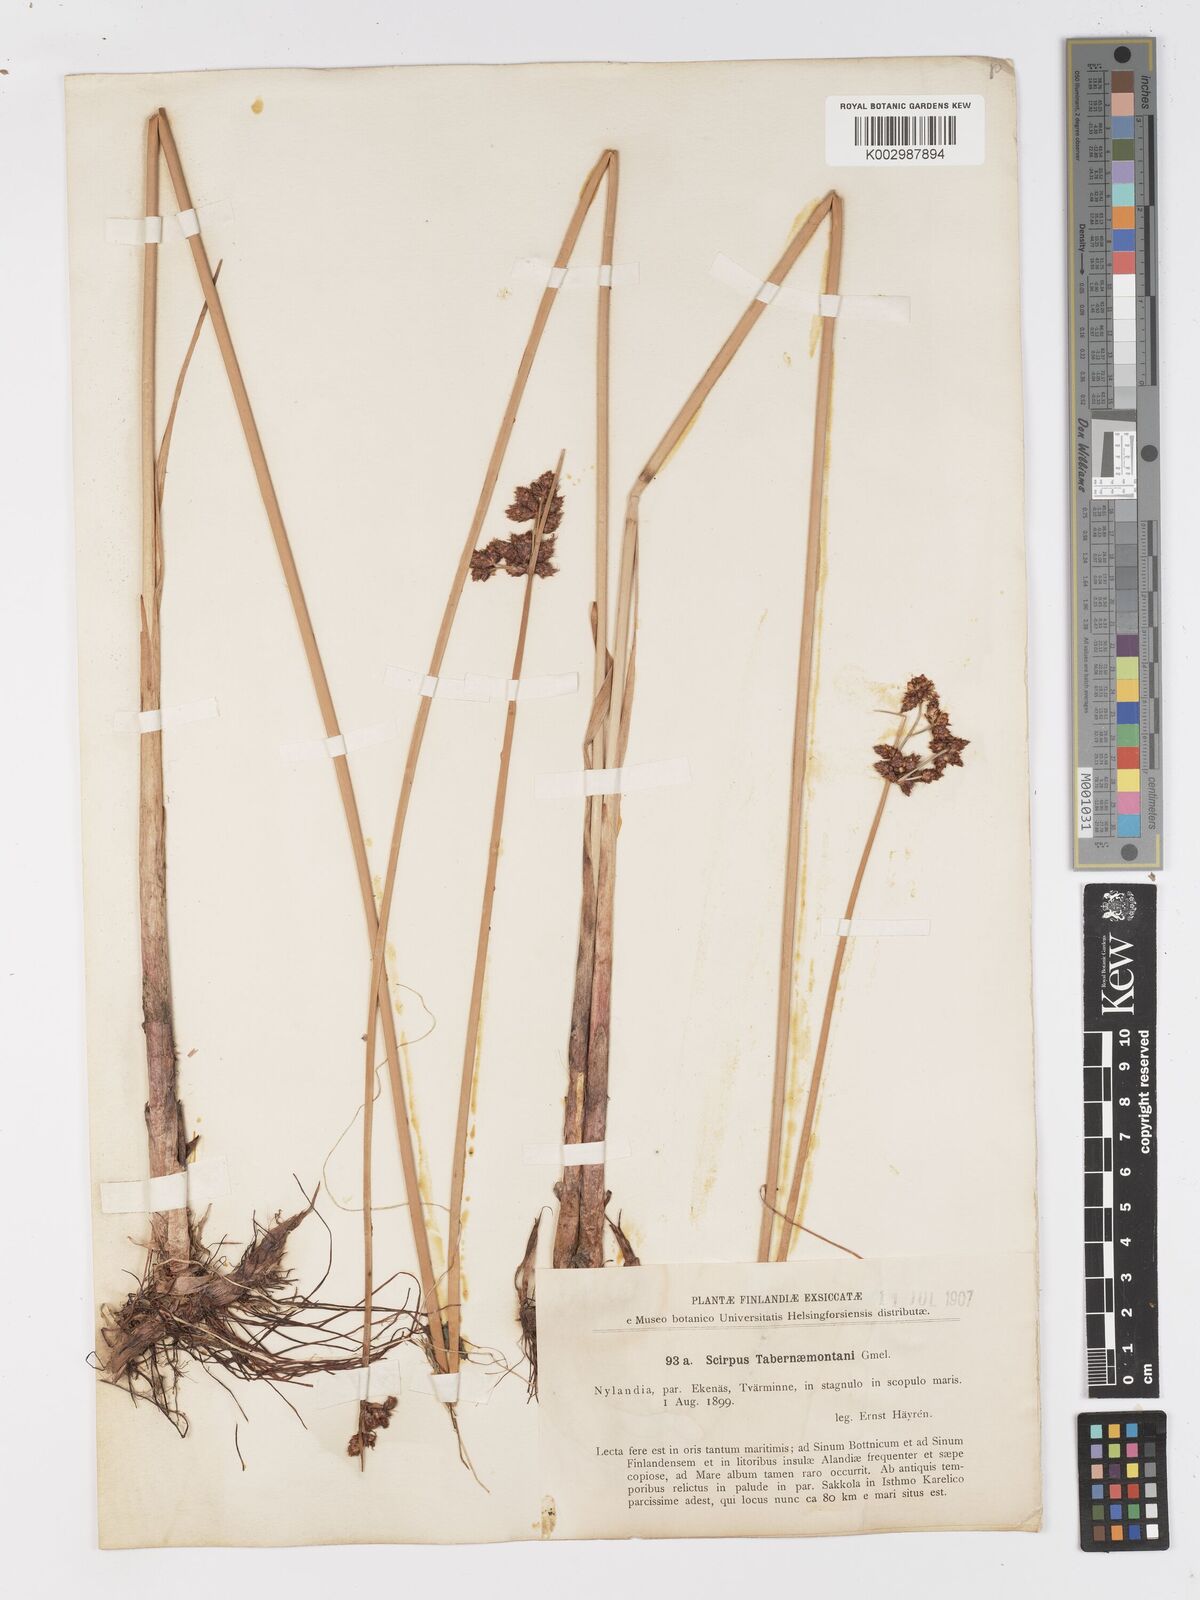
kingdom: Plantae
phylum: Tracheophyta
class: Liliopsida
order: Poales
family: Cyperaceae
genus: Schoenoplectus
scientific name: Schoenoplectus tabernaemontani
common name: Grey club-rush
